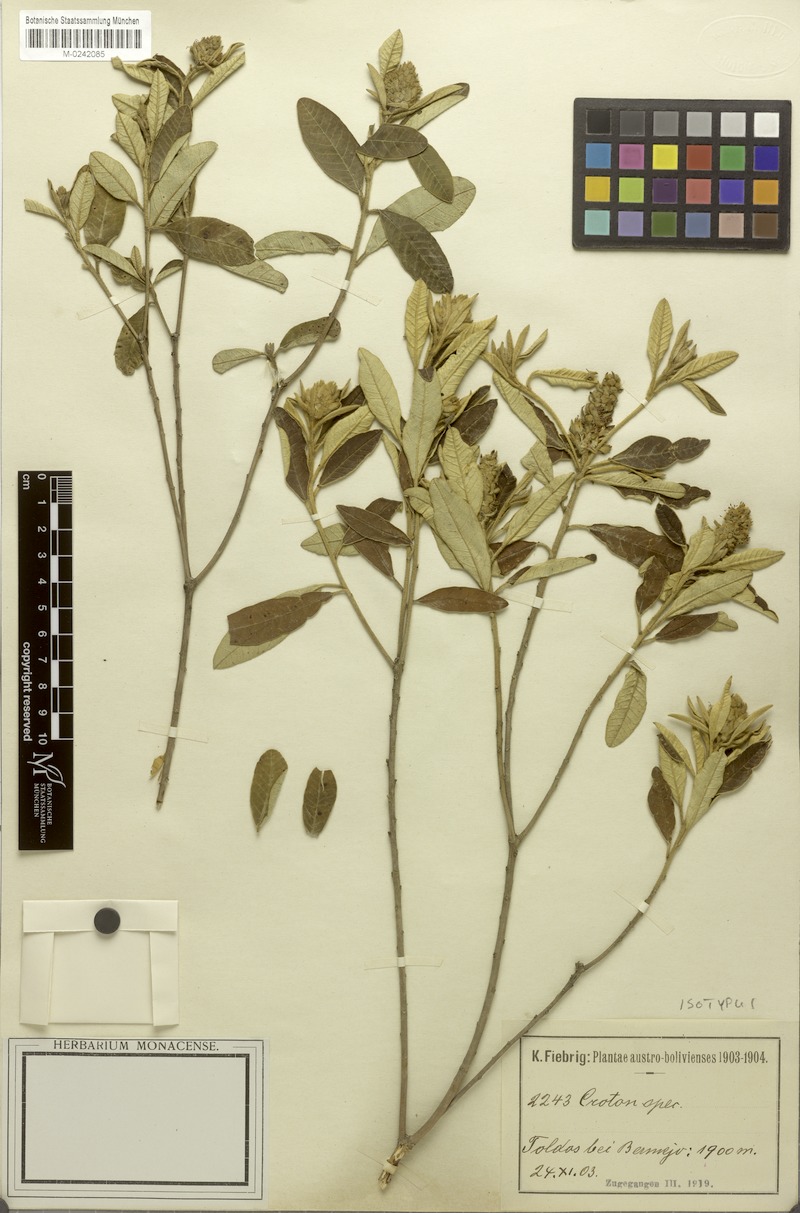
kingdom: Plantae
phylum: Tracheophyta
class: Magnoliopsida
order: Malpighiales
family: Euphorbiaceae
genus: Croton
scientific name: Croton emporiorum
